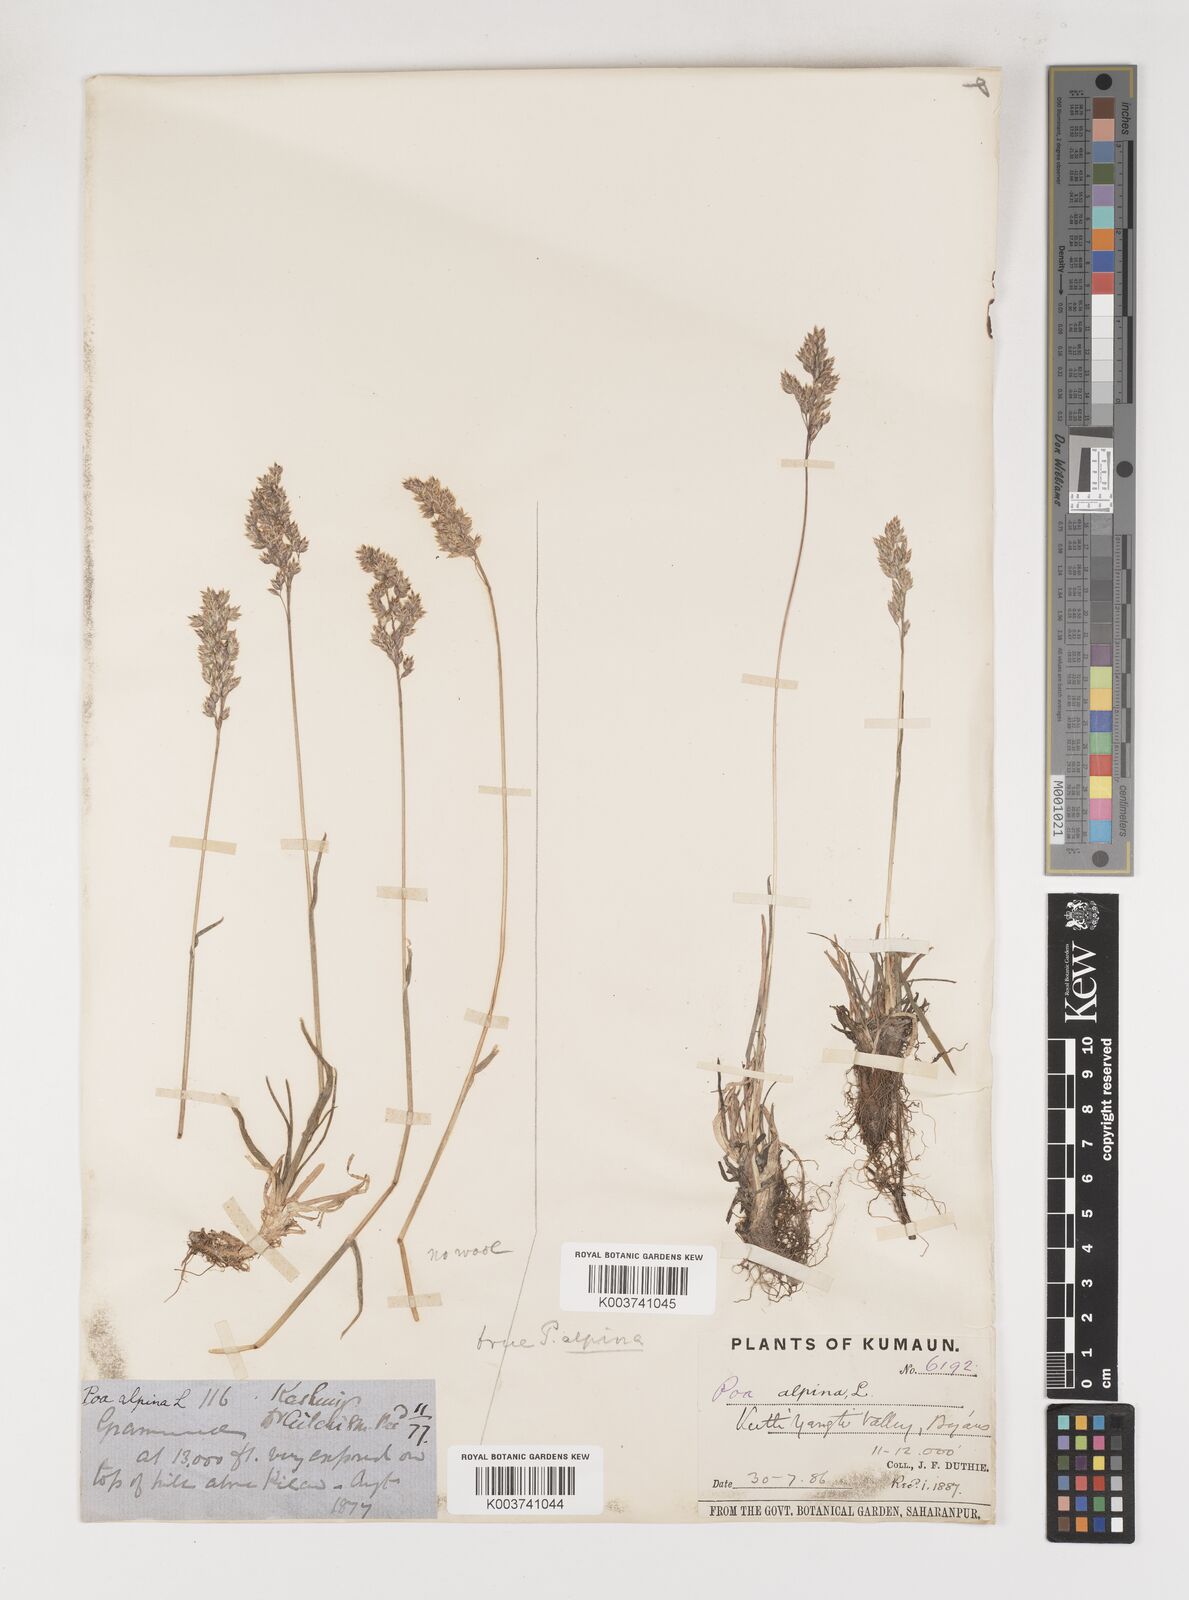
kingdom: Plantae
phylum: Tracheophyta
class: Liliopsida
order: Poales
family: Poaceae
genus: Poa
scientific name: Poa alpina
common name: Alpine bluegrass
